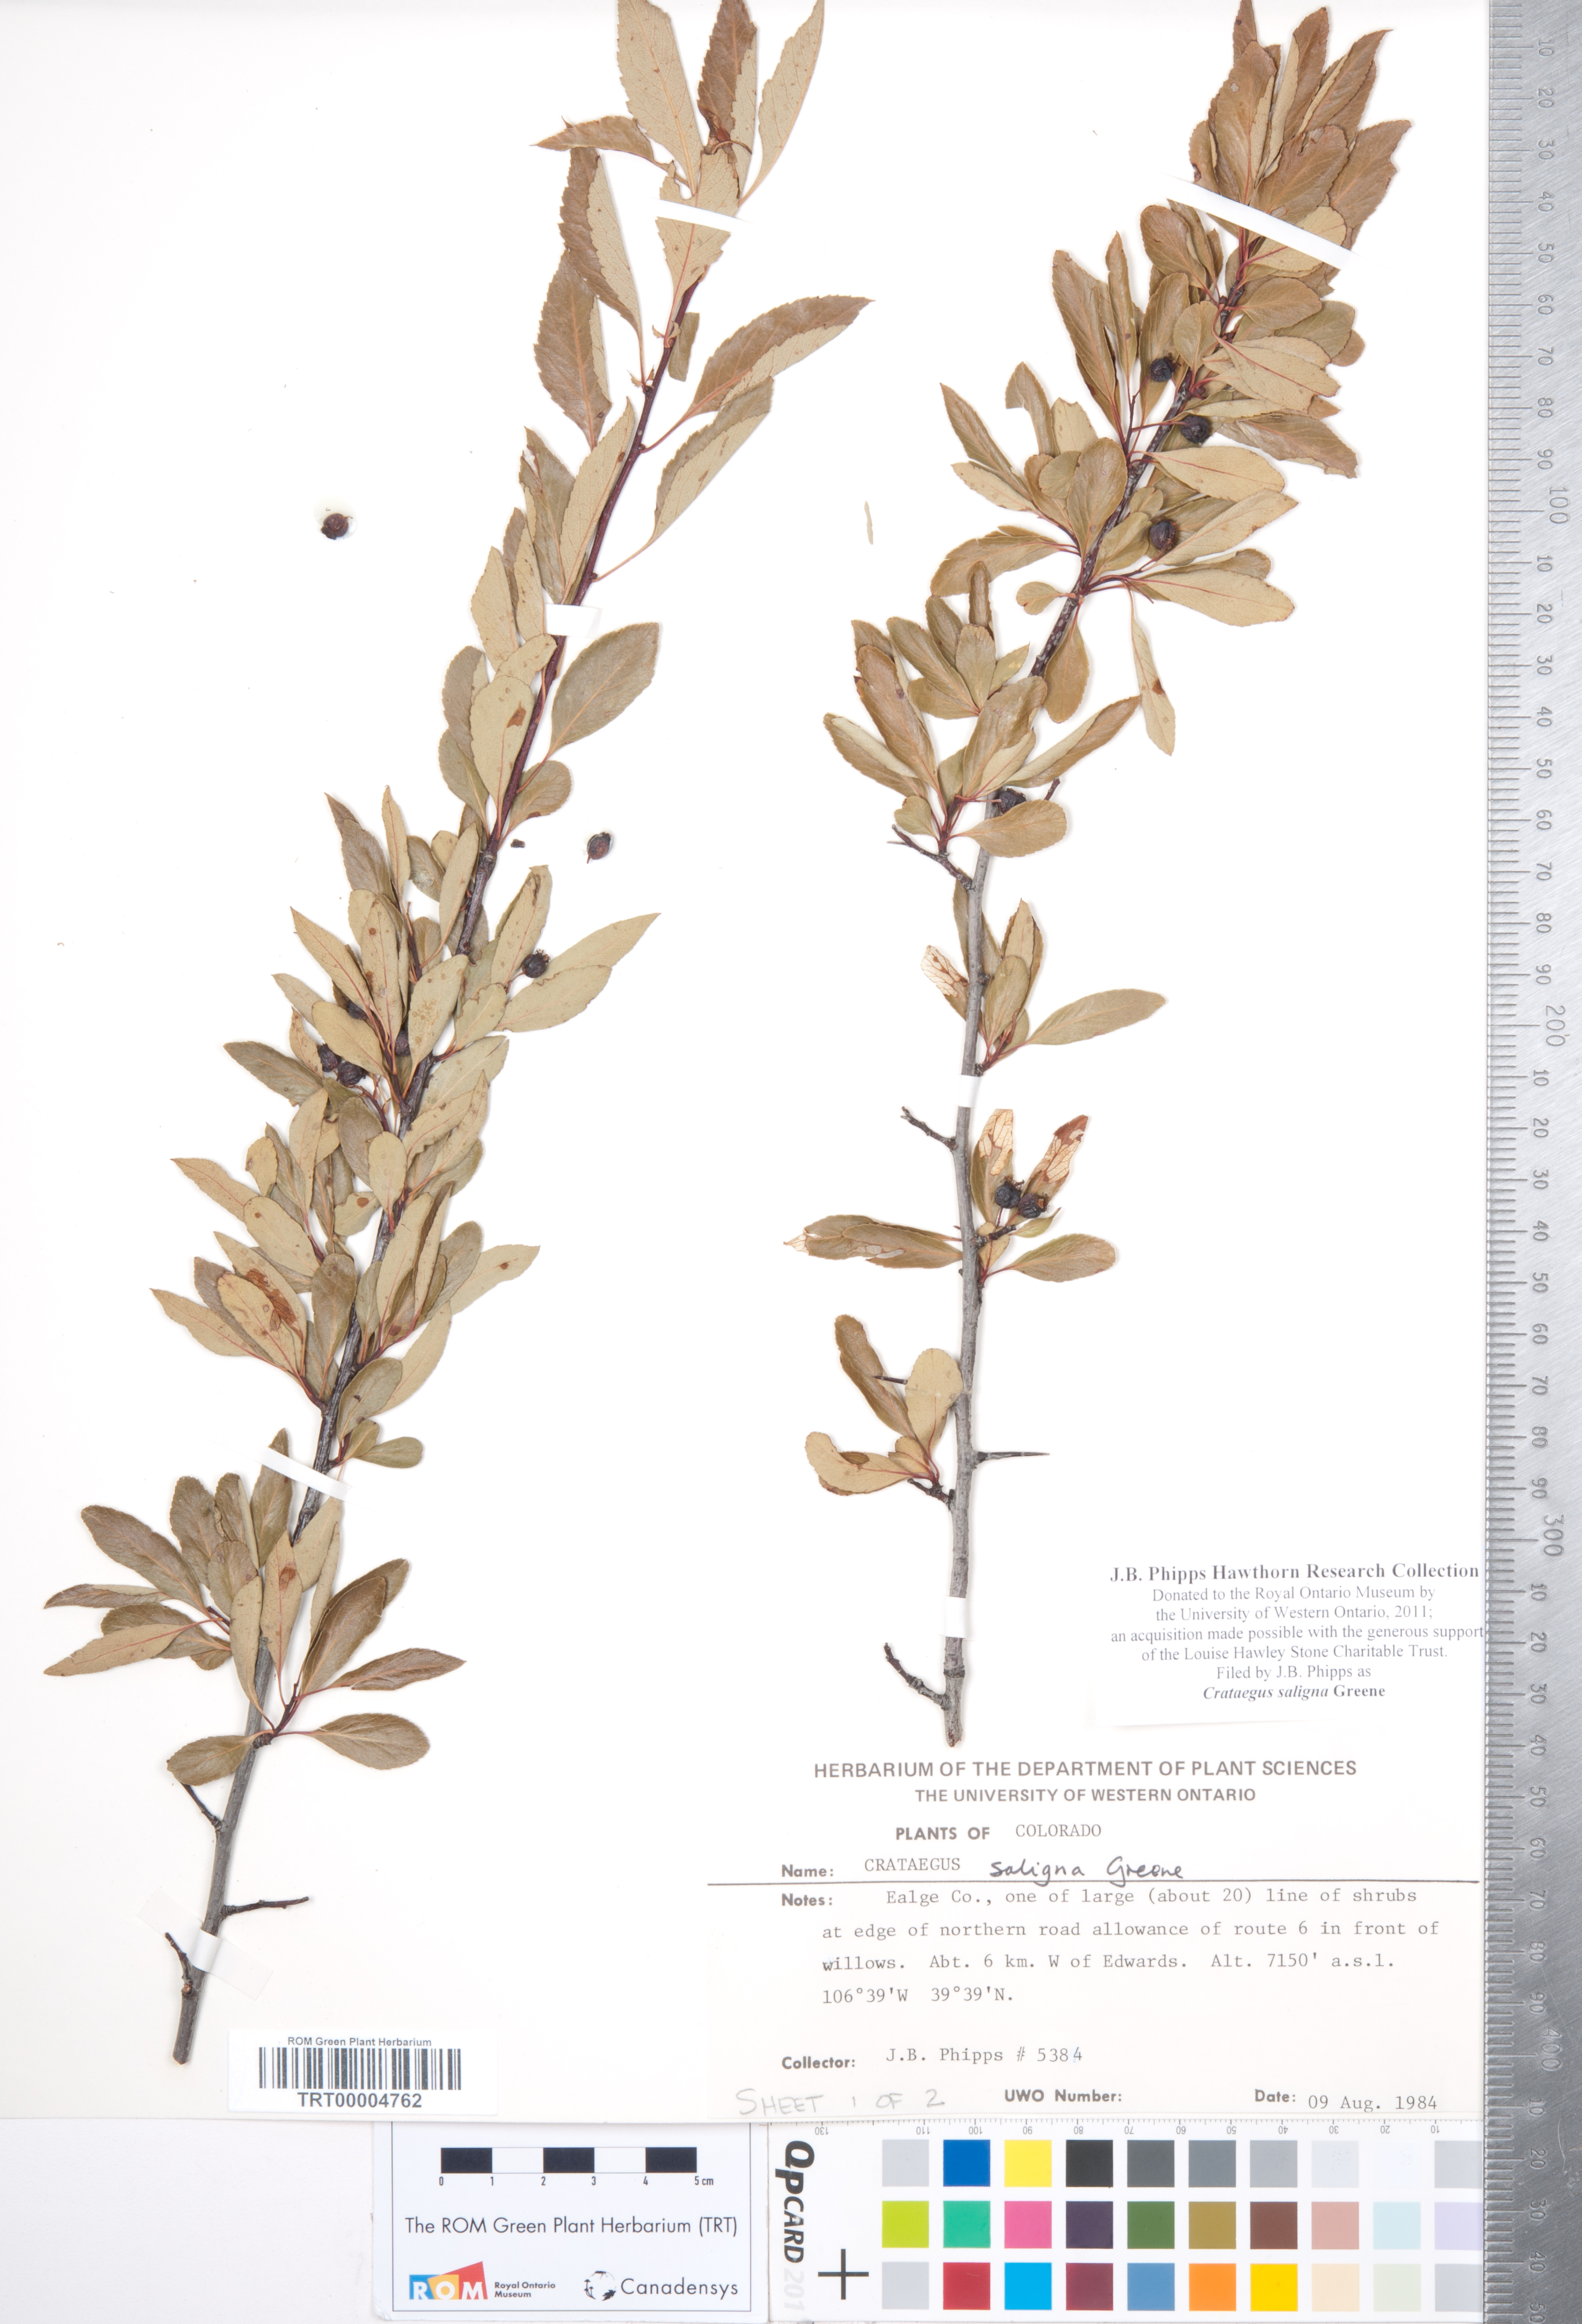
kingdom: Plantae
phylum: Tracheophyta
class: Magnoliopsida
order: Rosales
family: Rosaceae
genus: Crataegus
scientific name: Crataegus saligna
